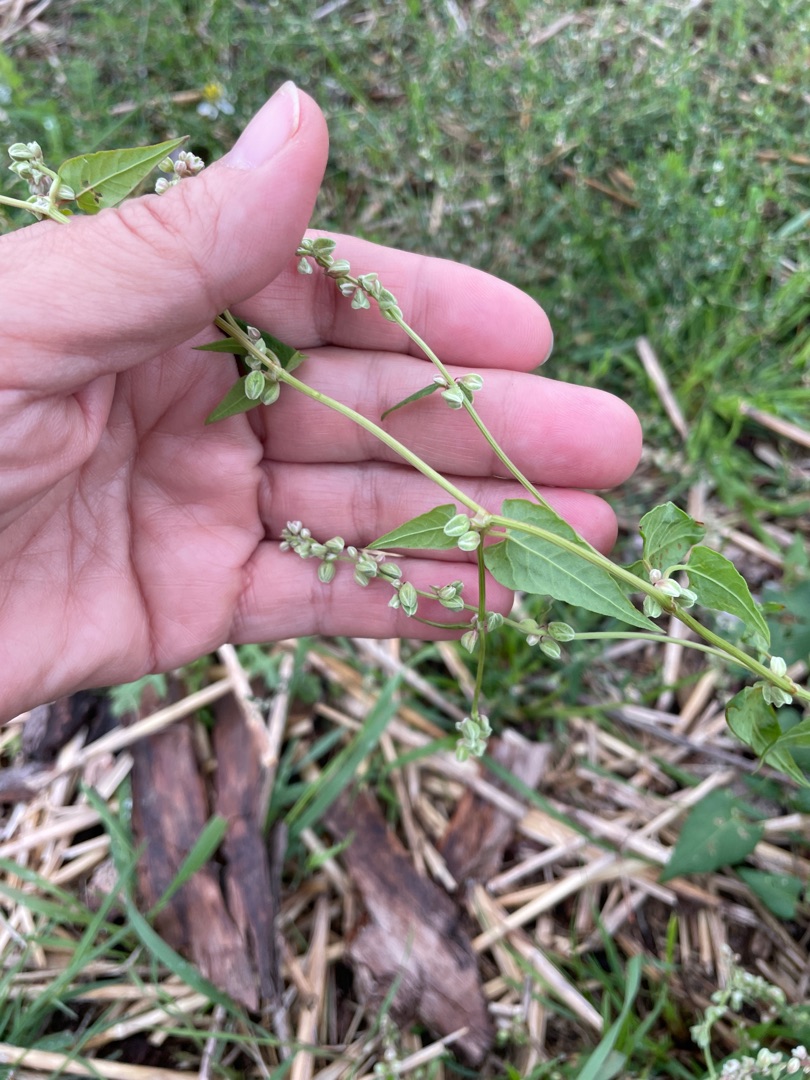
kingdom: Plantae
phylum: Tracheophyta
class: Magnoliopsida
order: Caryophyllales
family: Polygonaceae
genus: Fallopia
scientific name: Fallopia convolvulus
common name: Snerle-pileurt
